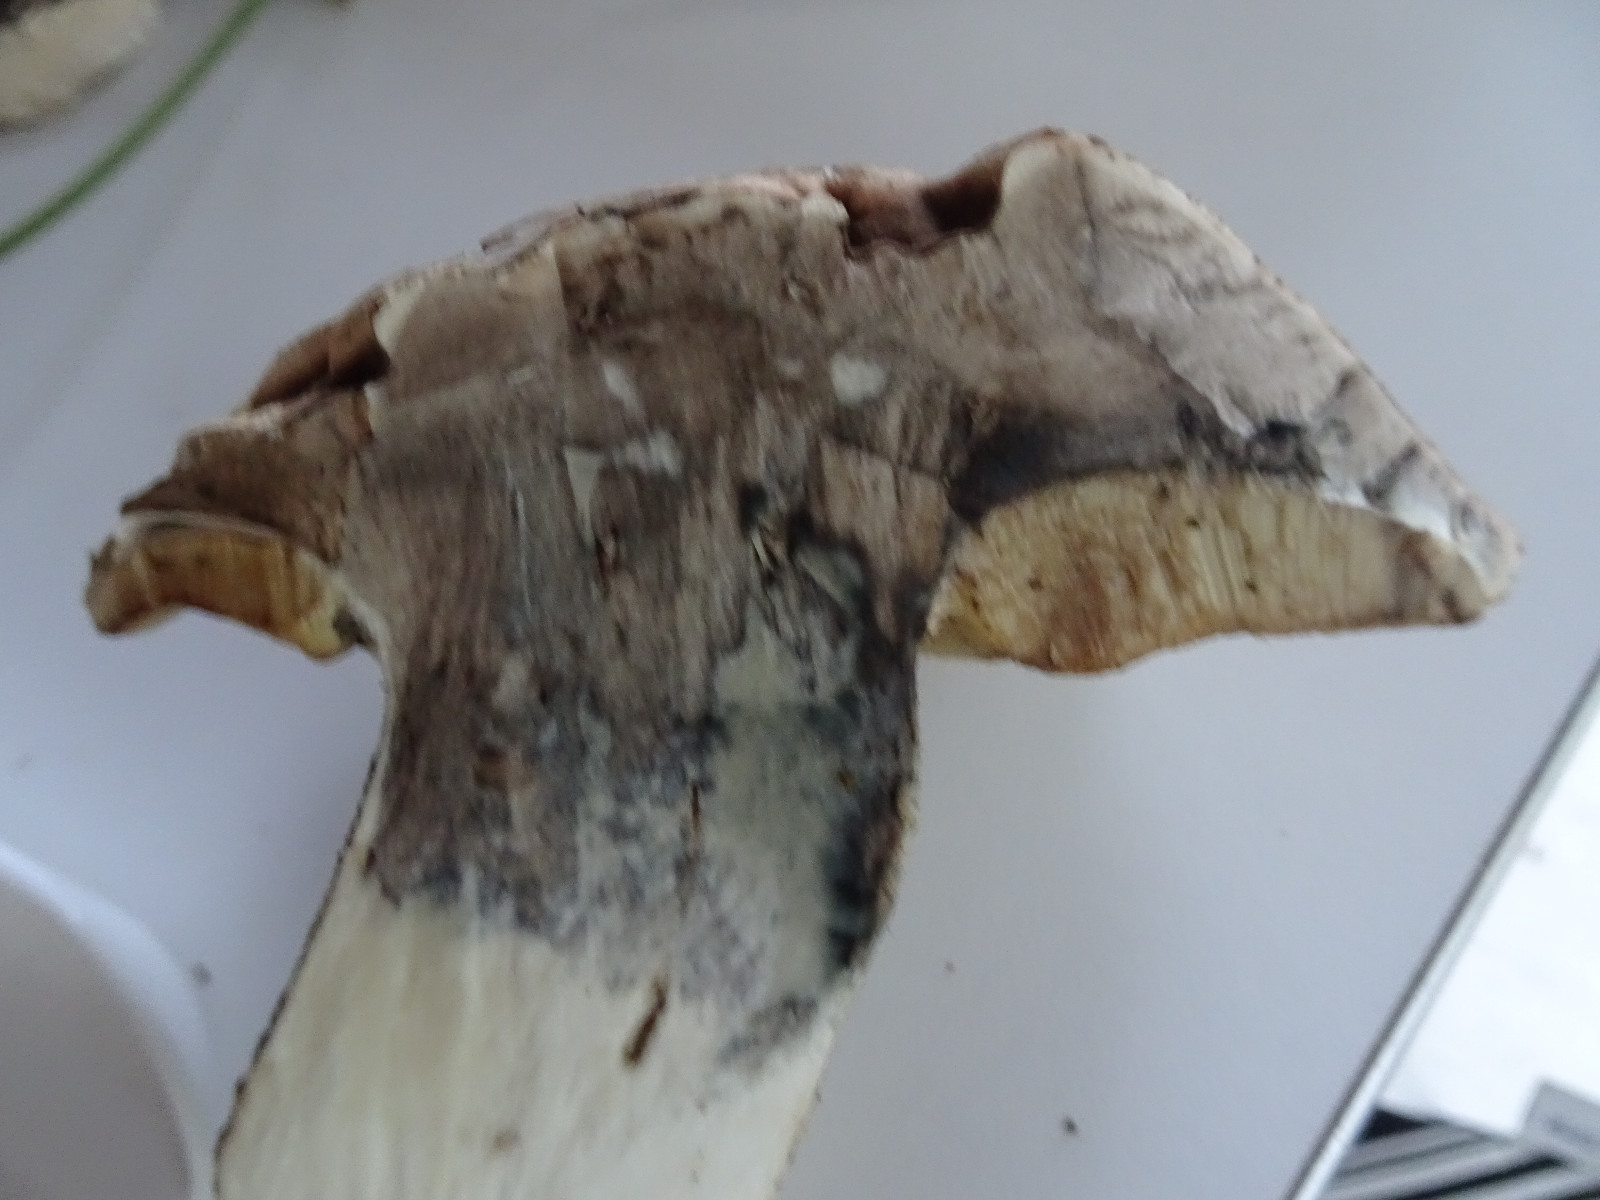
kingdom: Fungi
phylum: Basidiomycota
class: Agaricomycetes
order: Boletales
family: Boletaceae
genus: Leccinum
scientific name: Leccinum duriusculum
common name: poppel-skælrørhat
